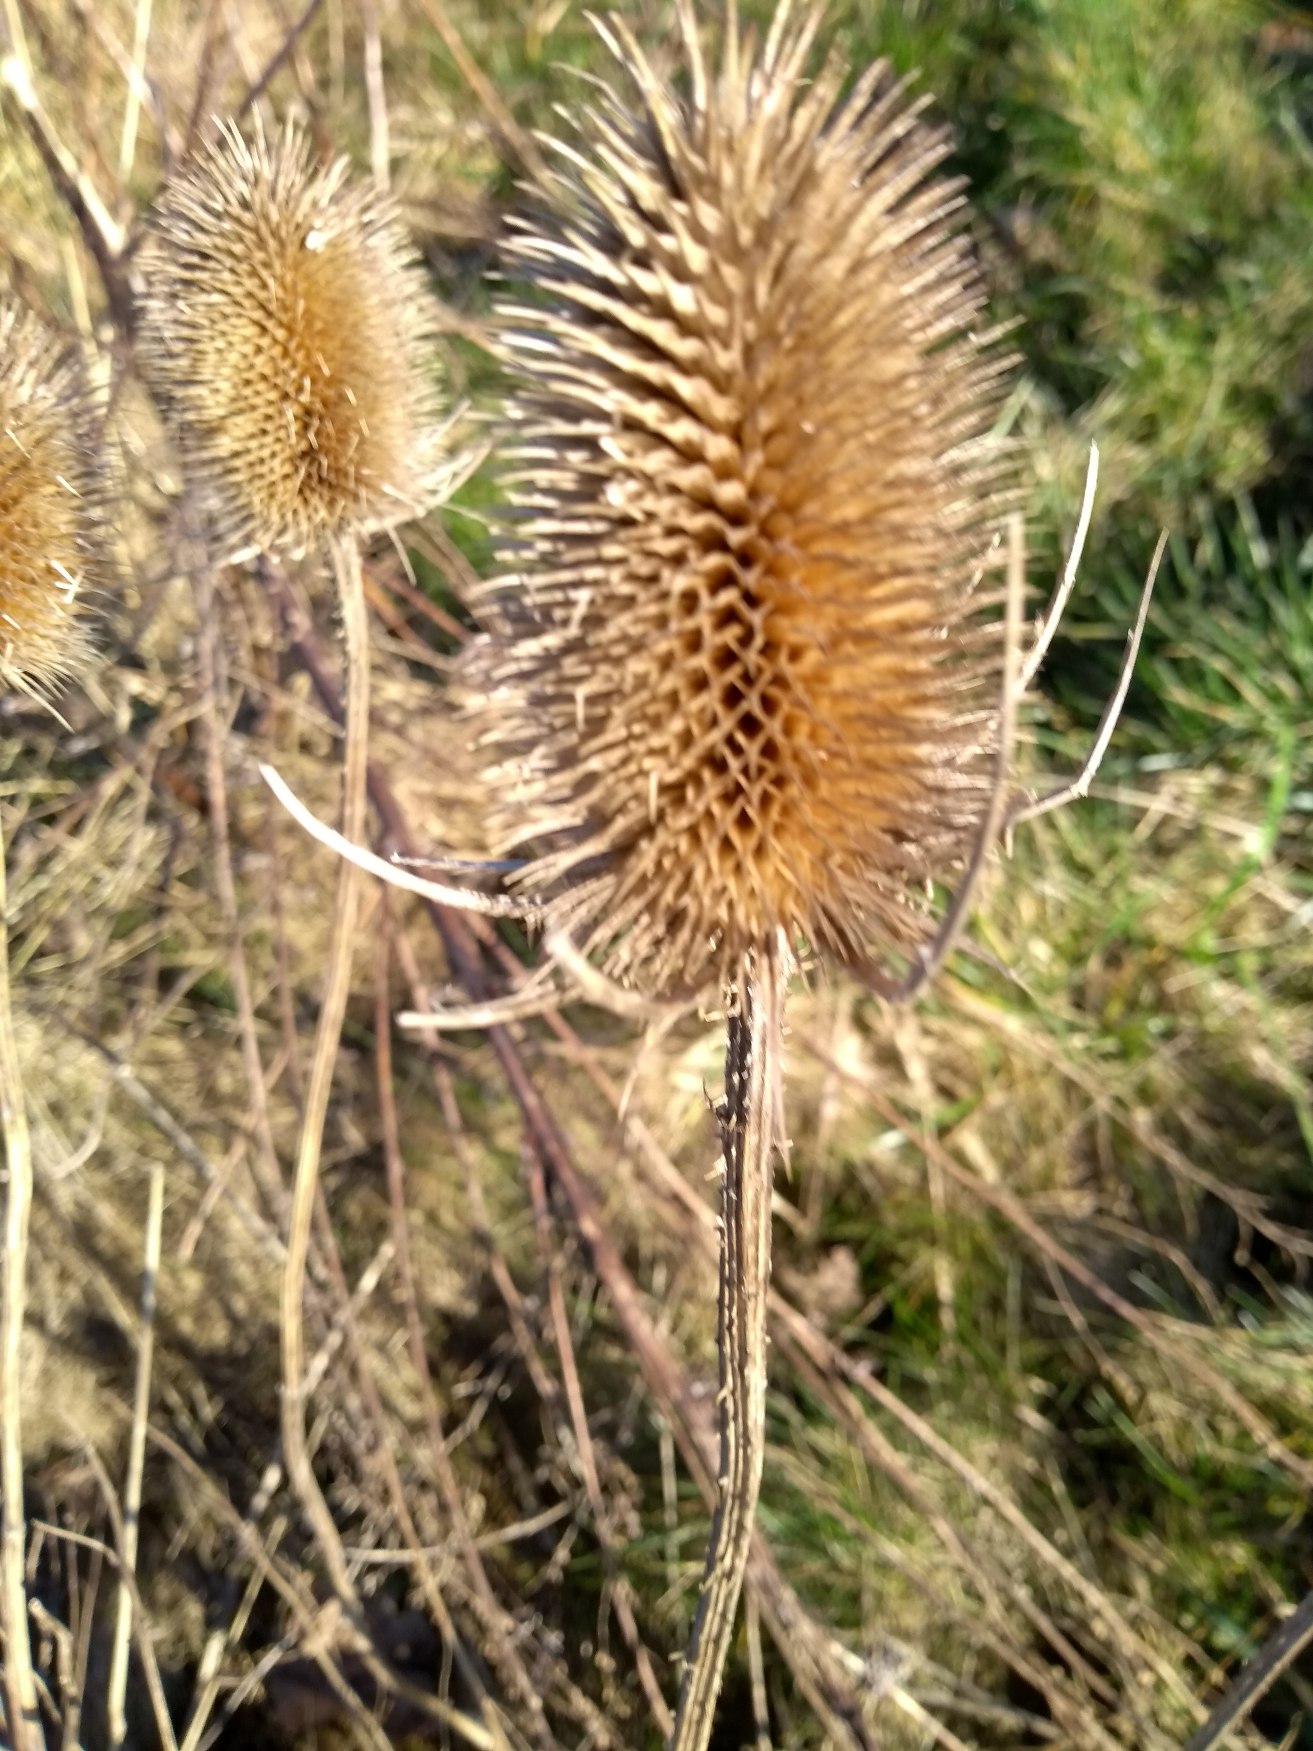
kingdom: Plantae
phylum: Tracheophyta
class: Magnoliopsida
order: Dipsacales
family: Caprifoliaceae
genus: Dipsacus
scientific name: Dipsacus fullonum
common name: Gærde-kartebolle
